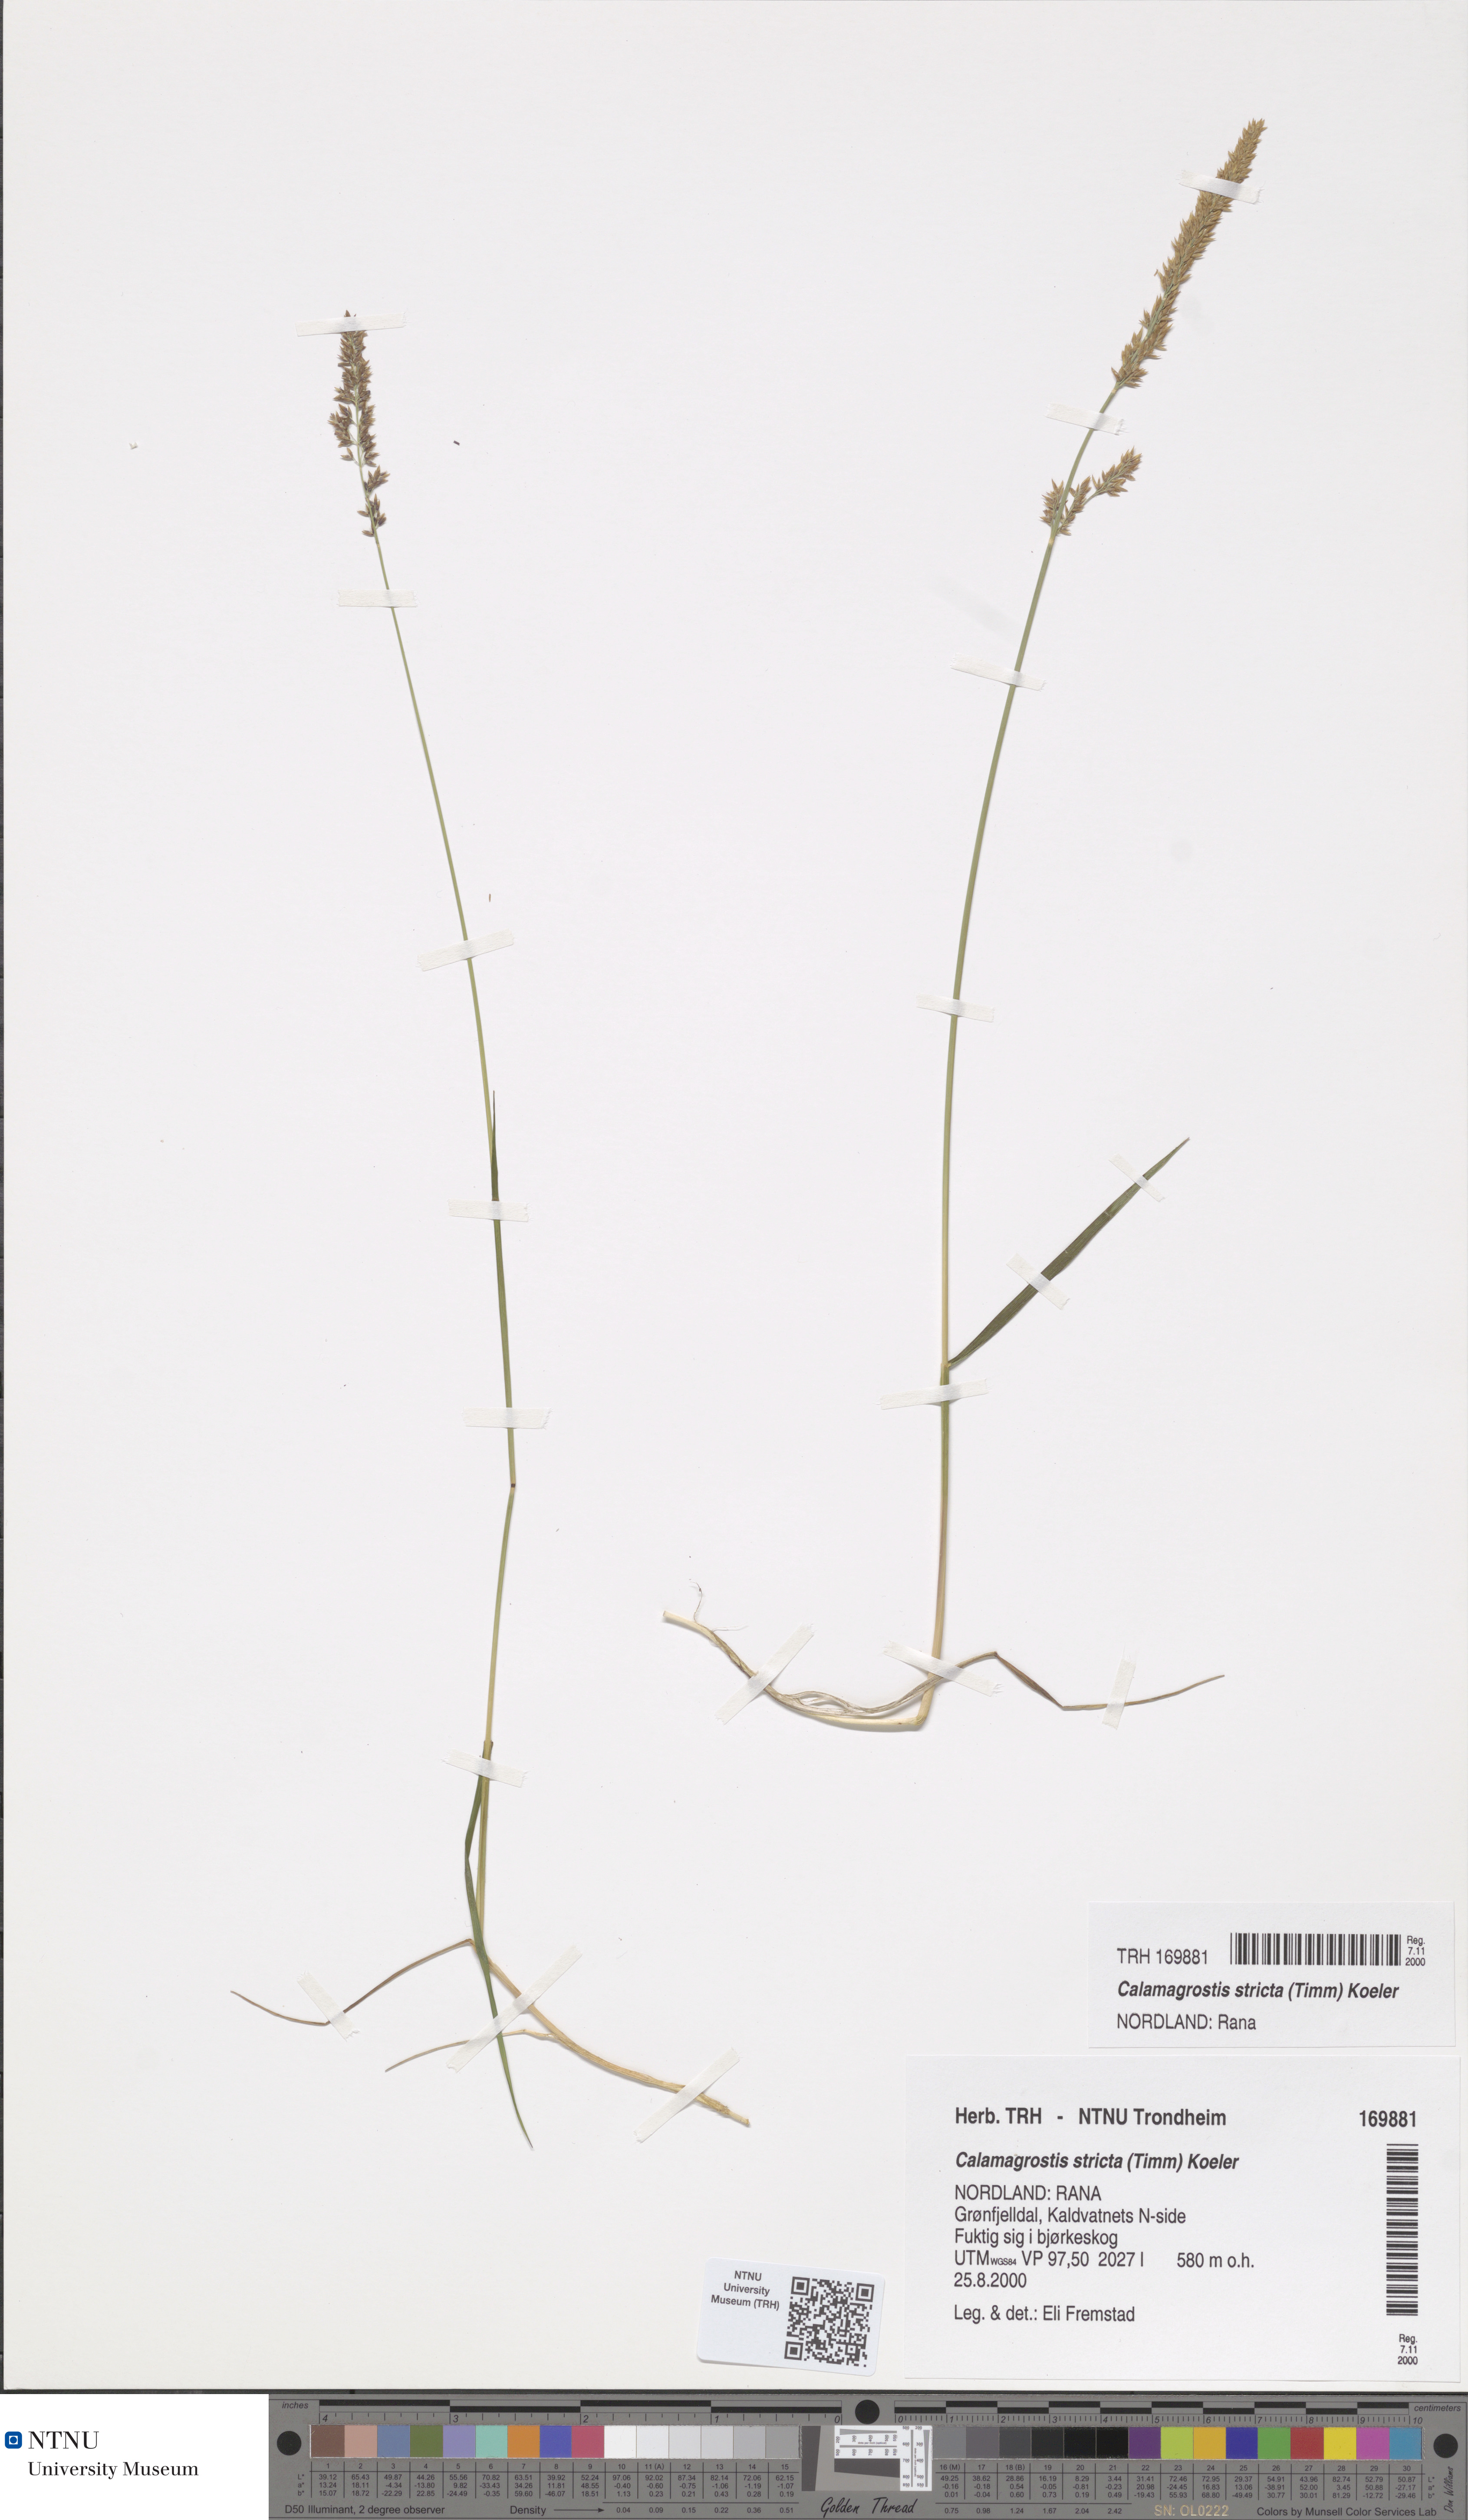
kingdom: Plantae
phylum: Tracheophyta
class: Liliopsida
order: Poales
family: Poaceae
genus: Achnatherum
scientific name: Achnatherum calamagrostis
